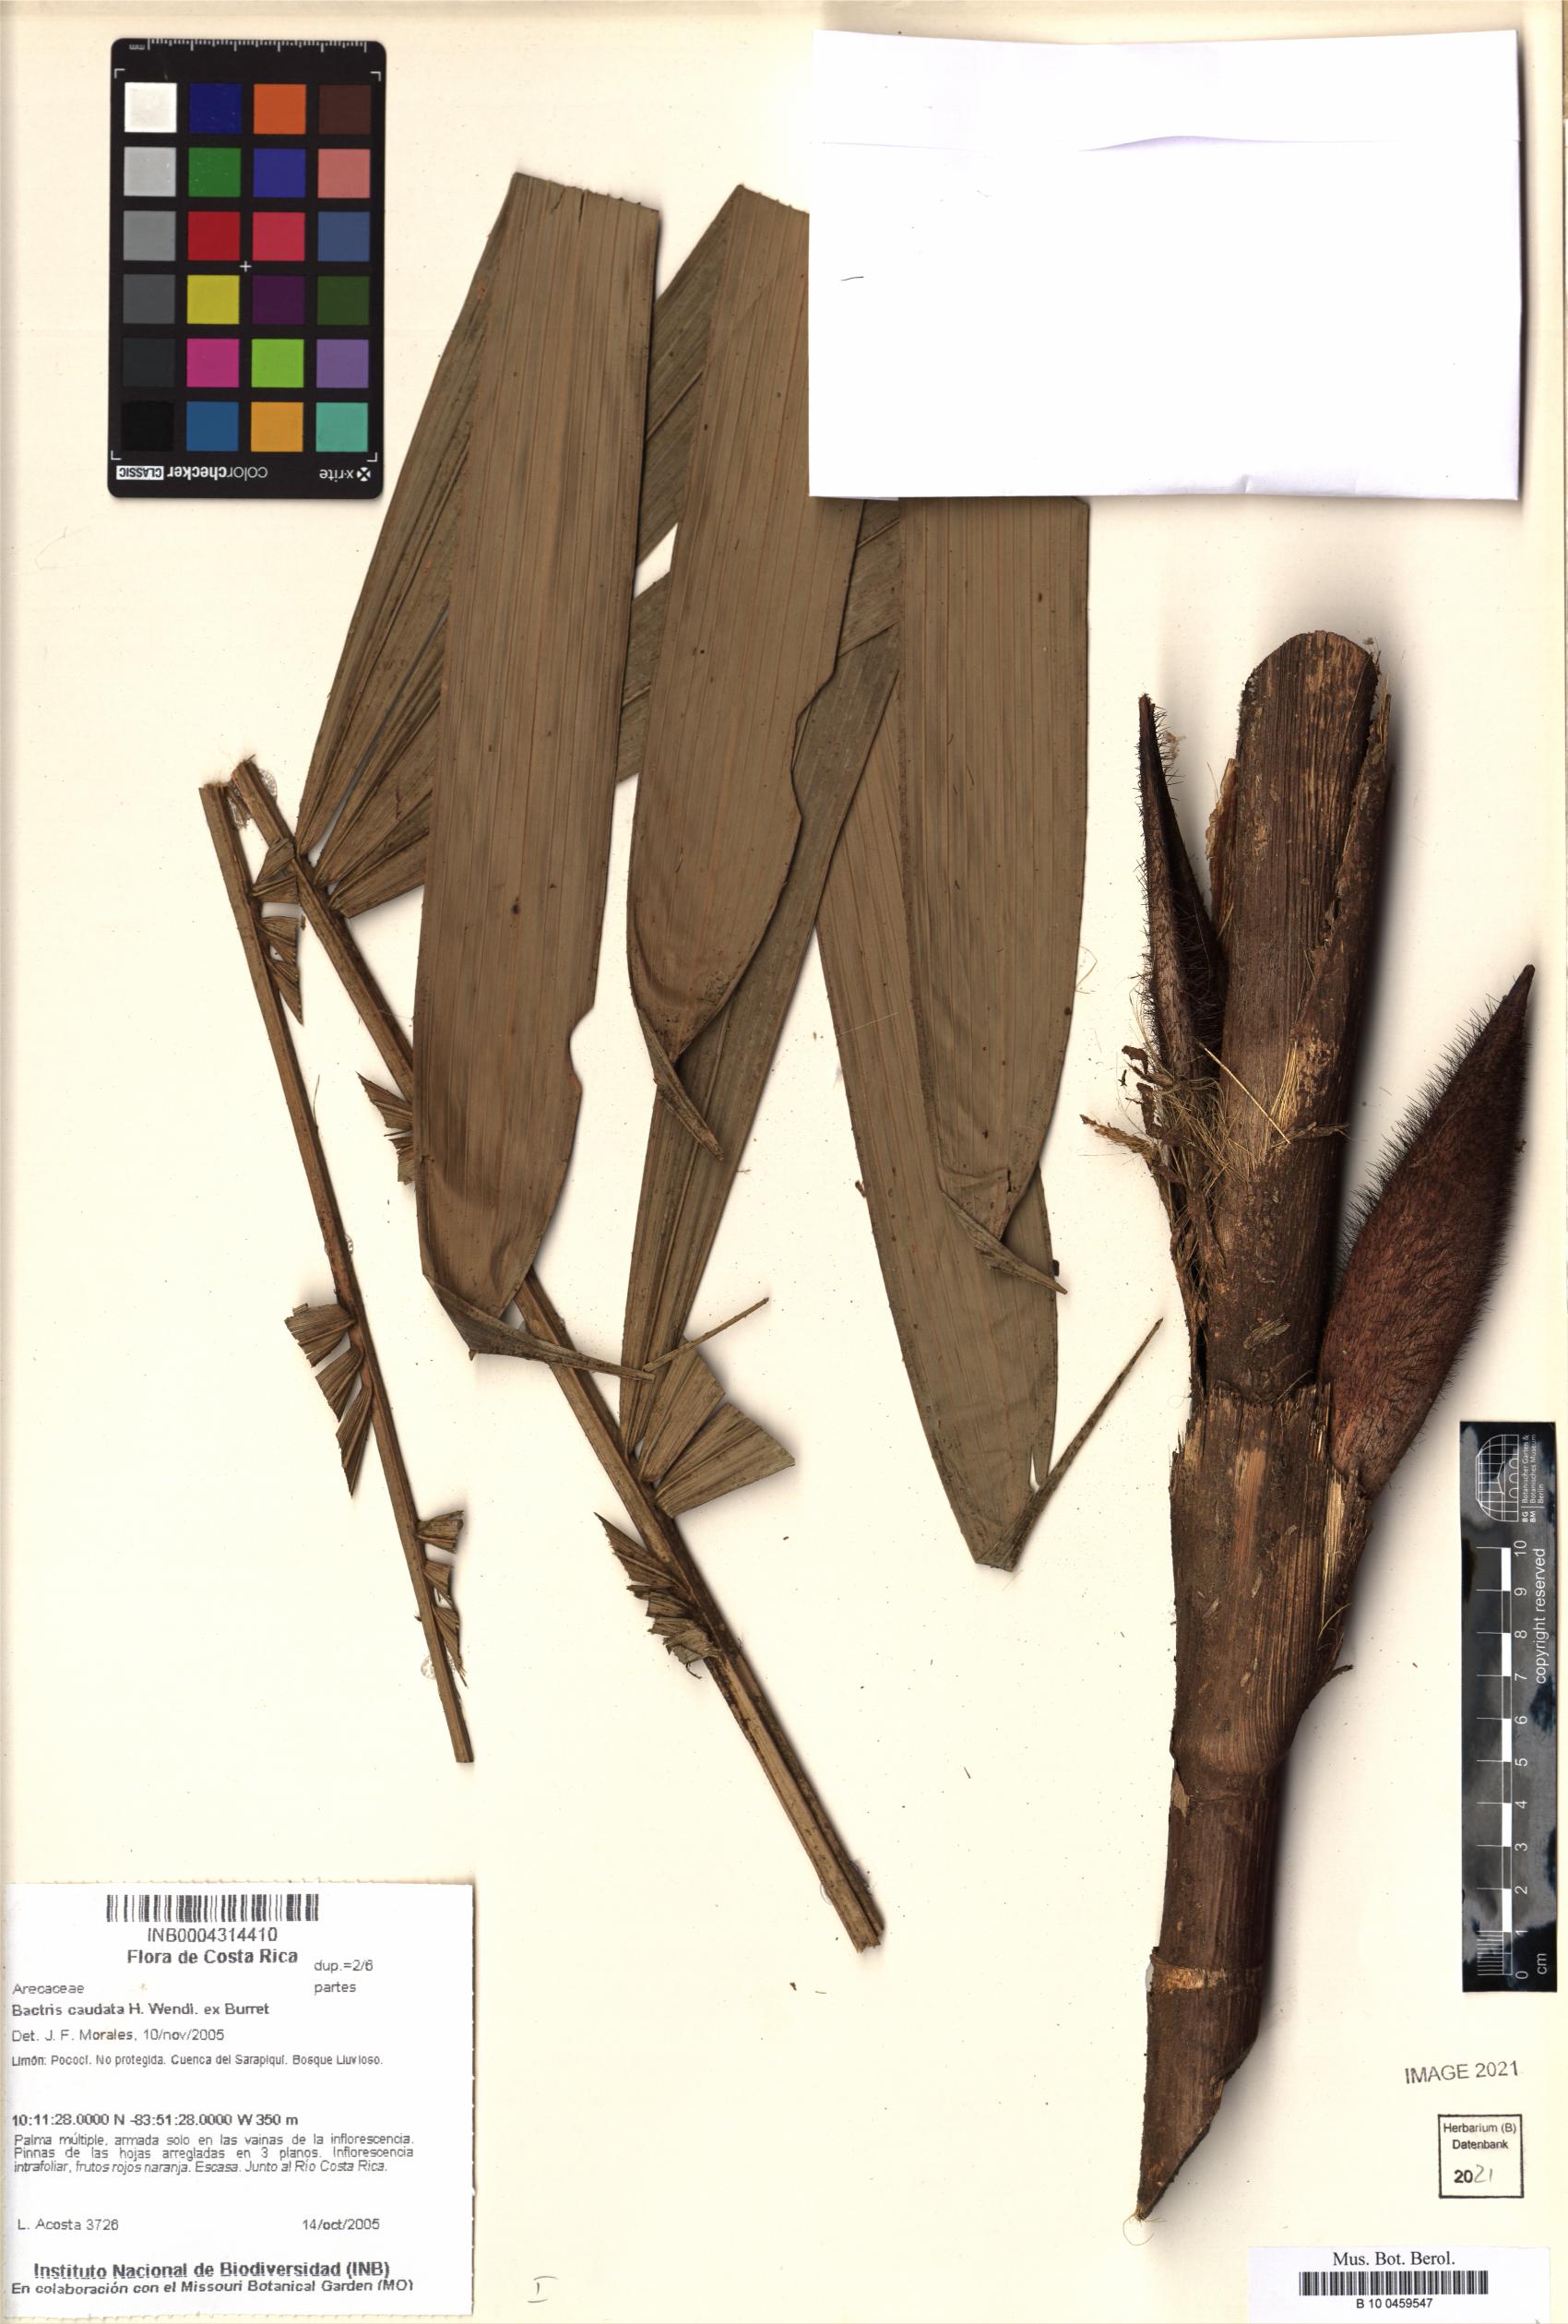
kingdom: Plantae
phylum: Tracheophyta
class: Liliopsida
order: Arecales
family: Arecaceae
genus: Bactris
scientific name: Bactris caudata
